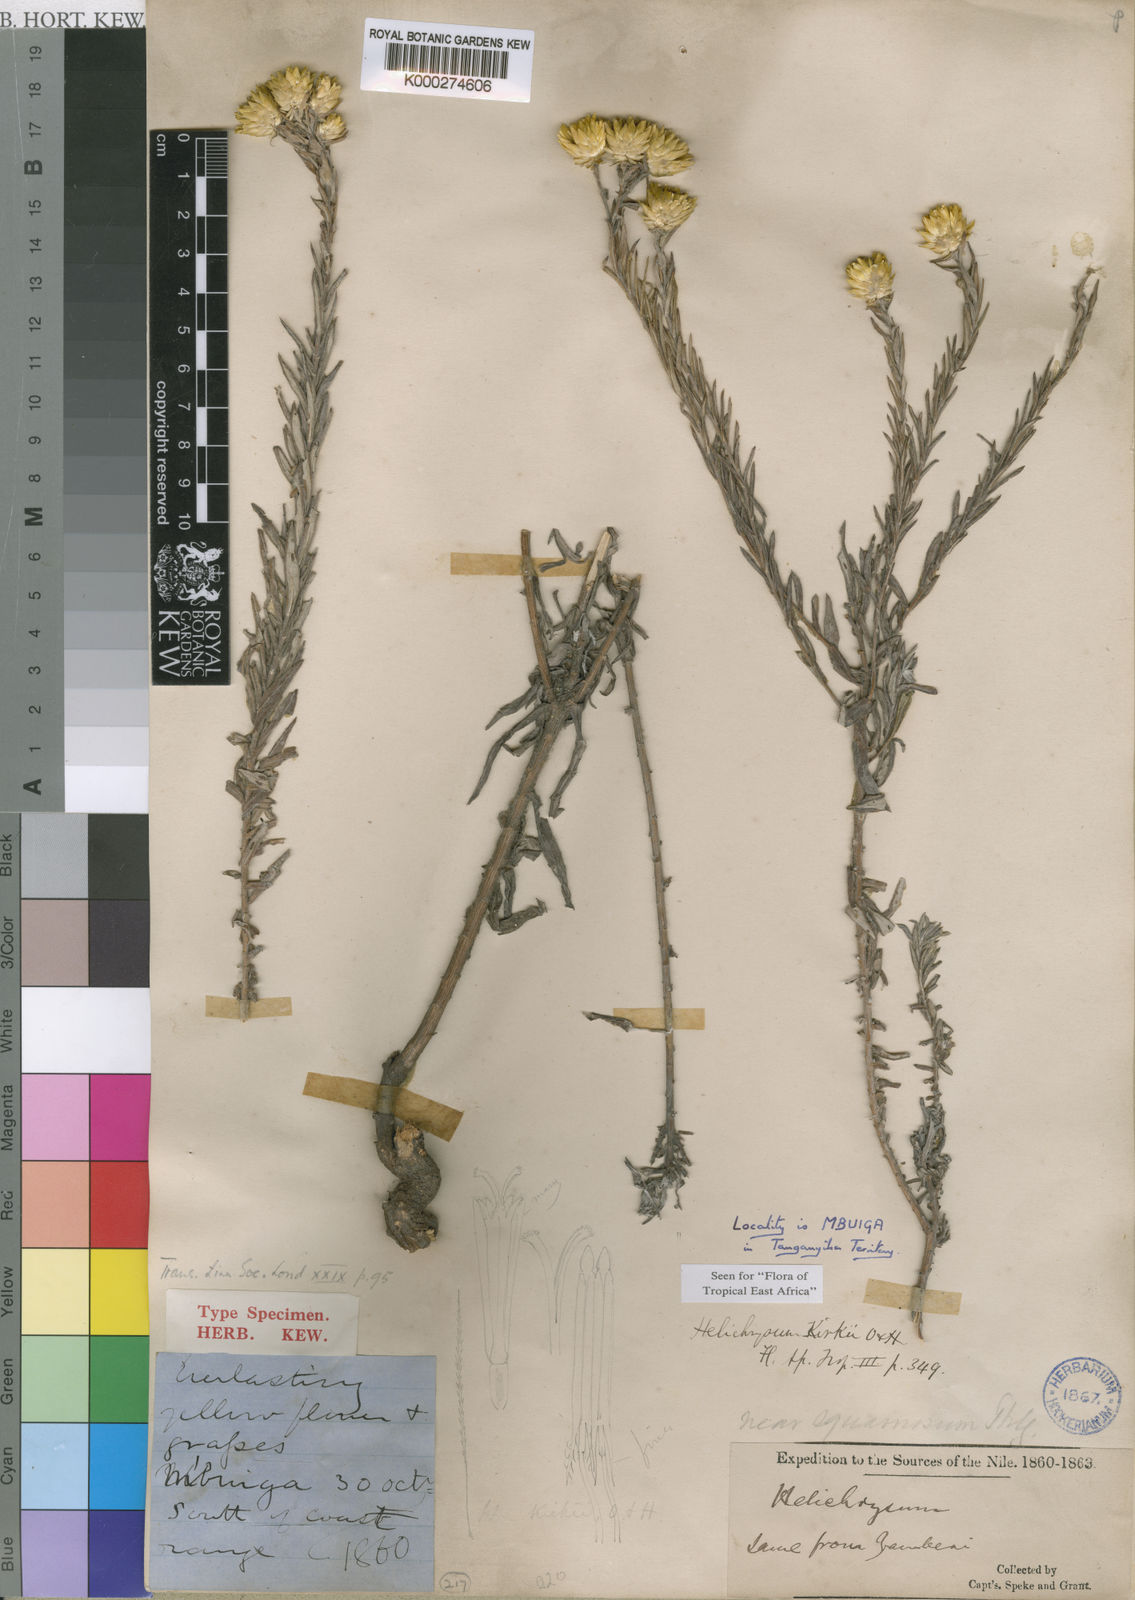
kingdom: Plantae
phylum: Tracheophyta
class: Magnoliopsida
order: Asterales
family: Asteraceae
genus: Helichrysum
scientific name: Helichrysum kirkii
